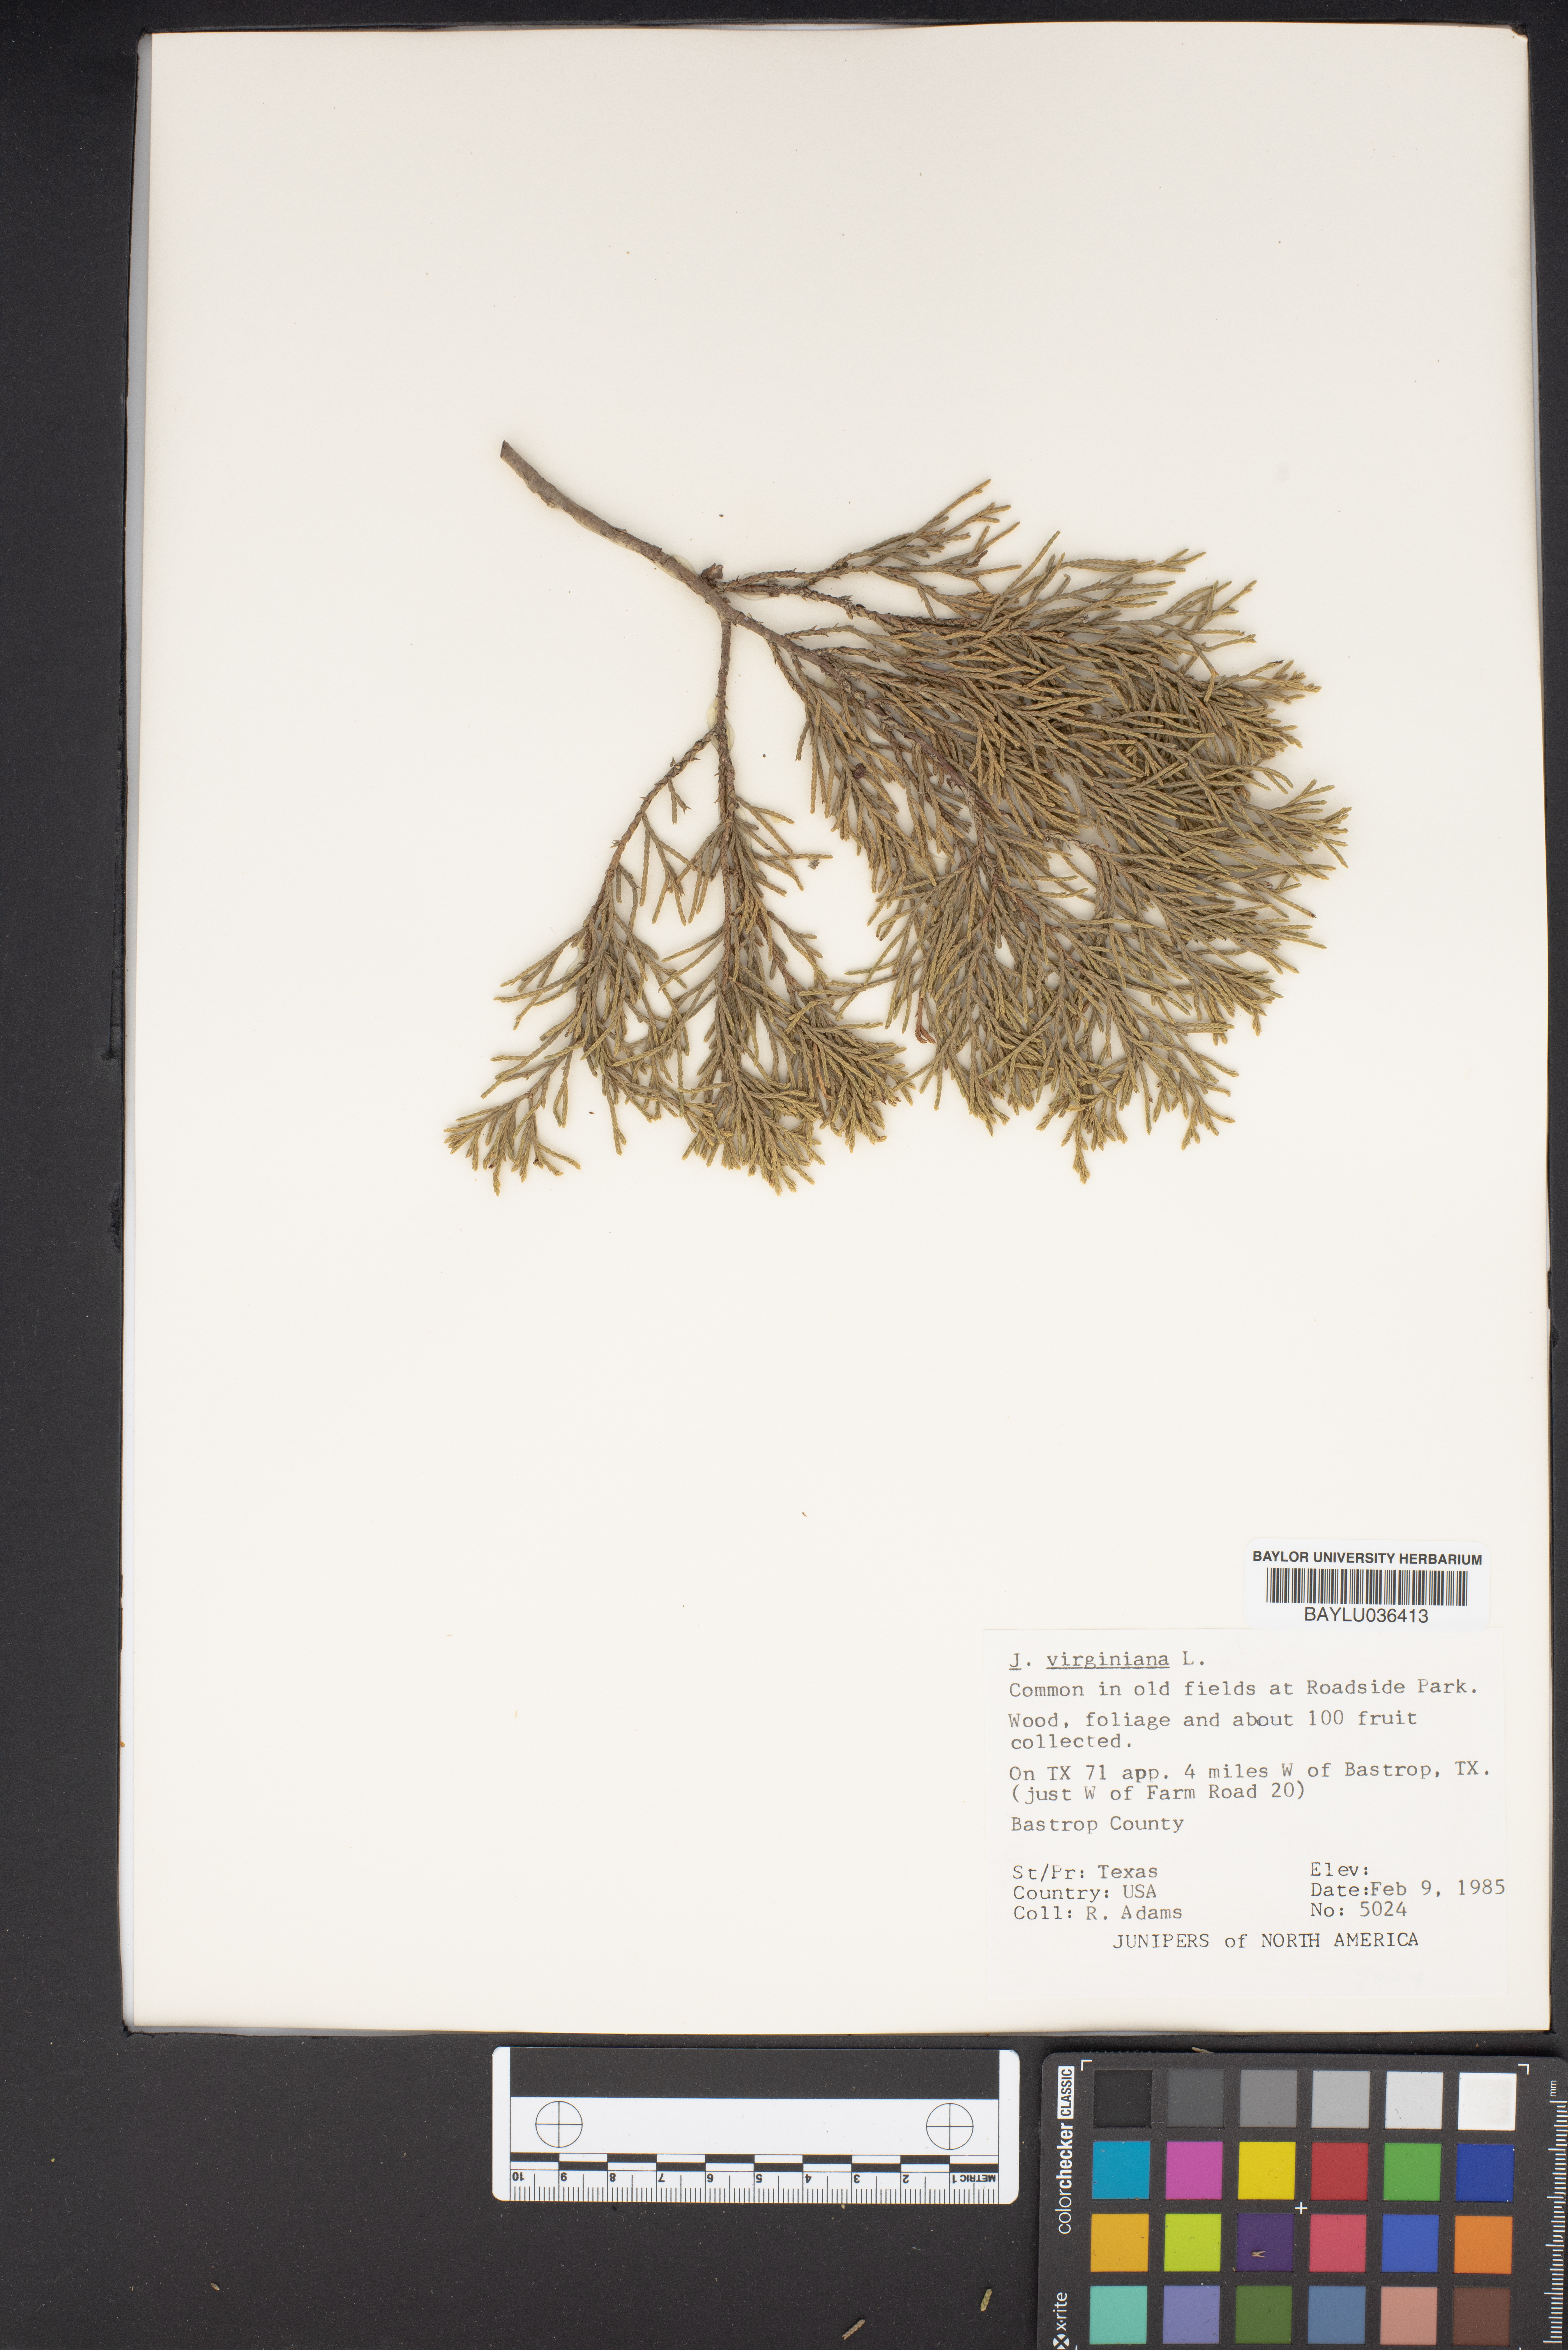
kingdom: Plantae
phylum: Tracheophyta
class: Pinopsida
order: Pinales
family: Cupressaceae
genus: Juniperus
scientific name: Juniperus virginiana
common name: Red juniper
